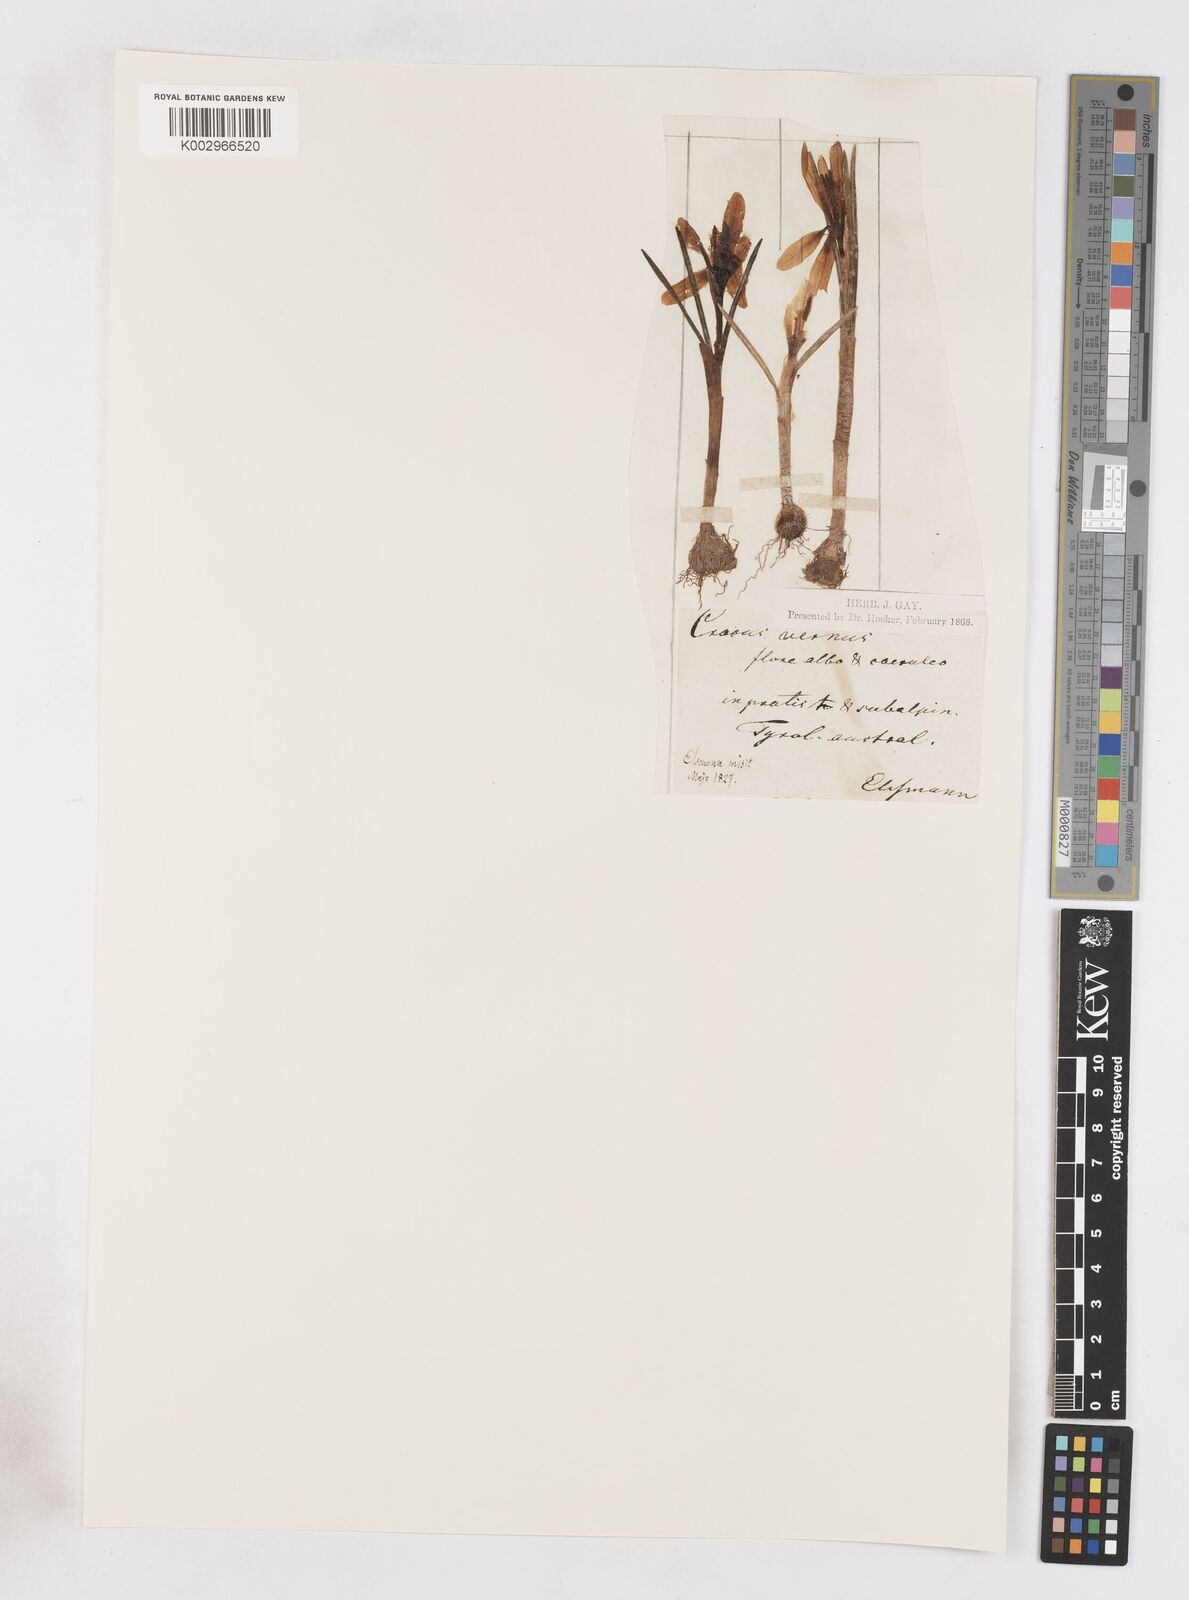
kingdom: Plantae
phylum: Tracheophyta
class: Liliopsida
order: Asparagales
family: Iridaceae
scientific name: Iridaceae
